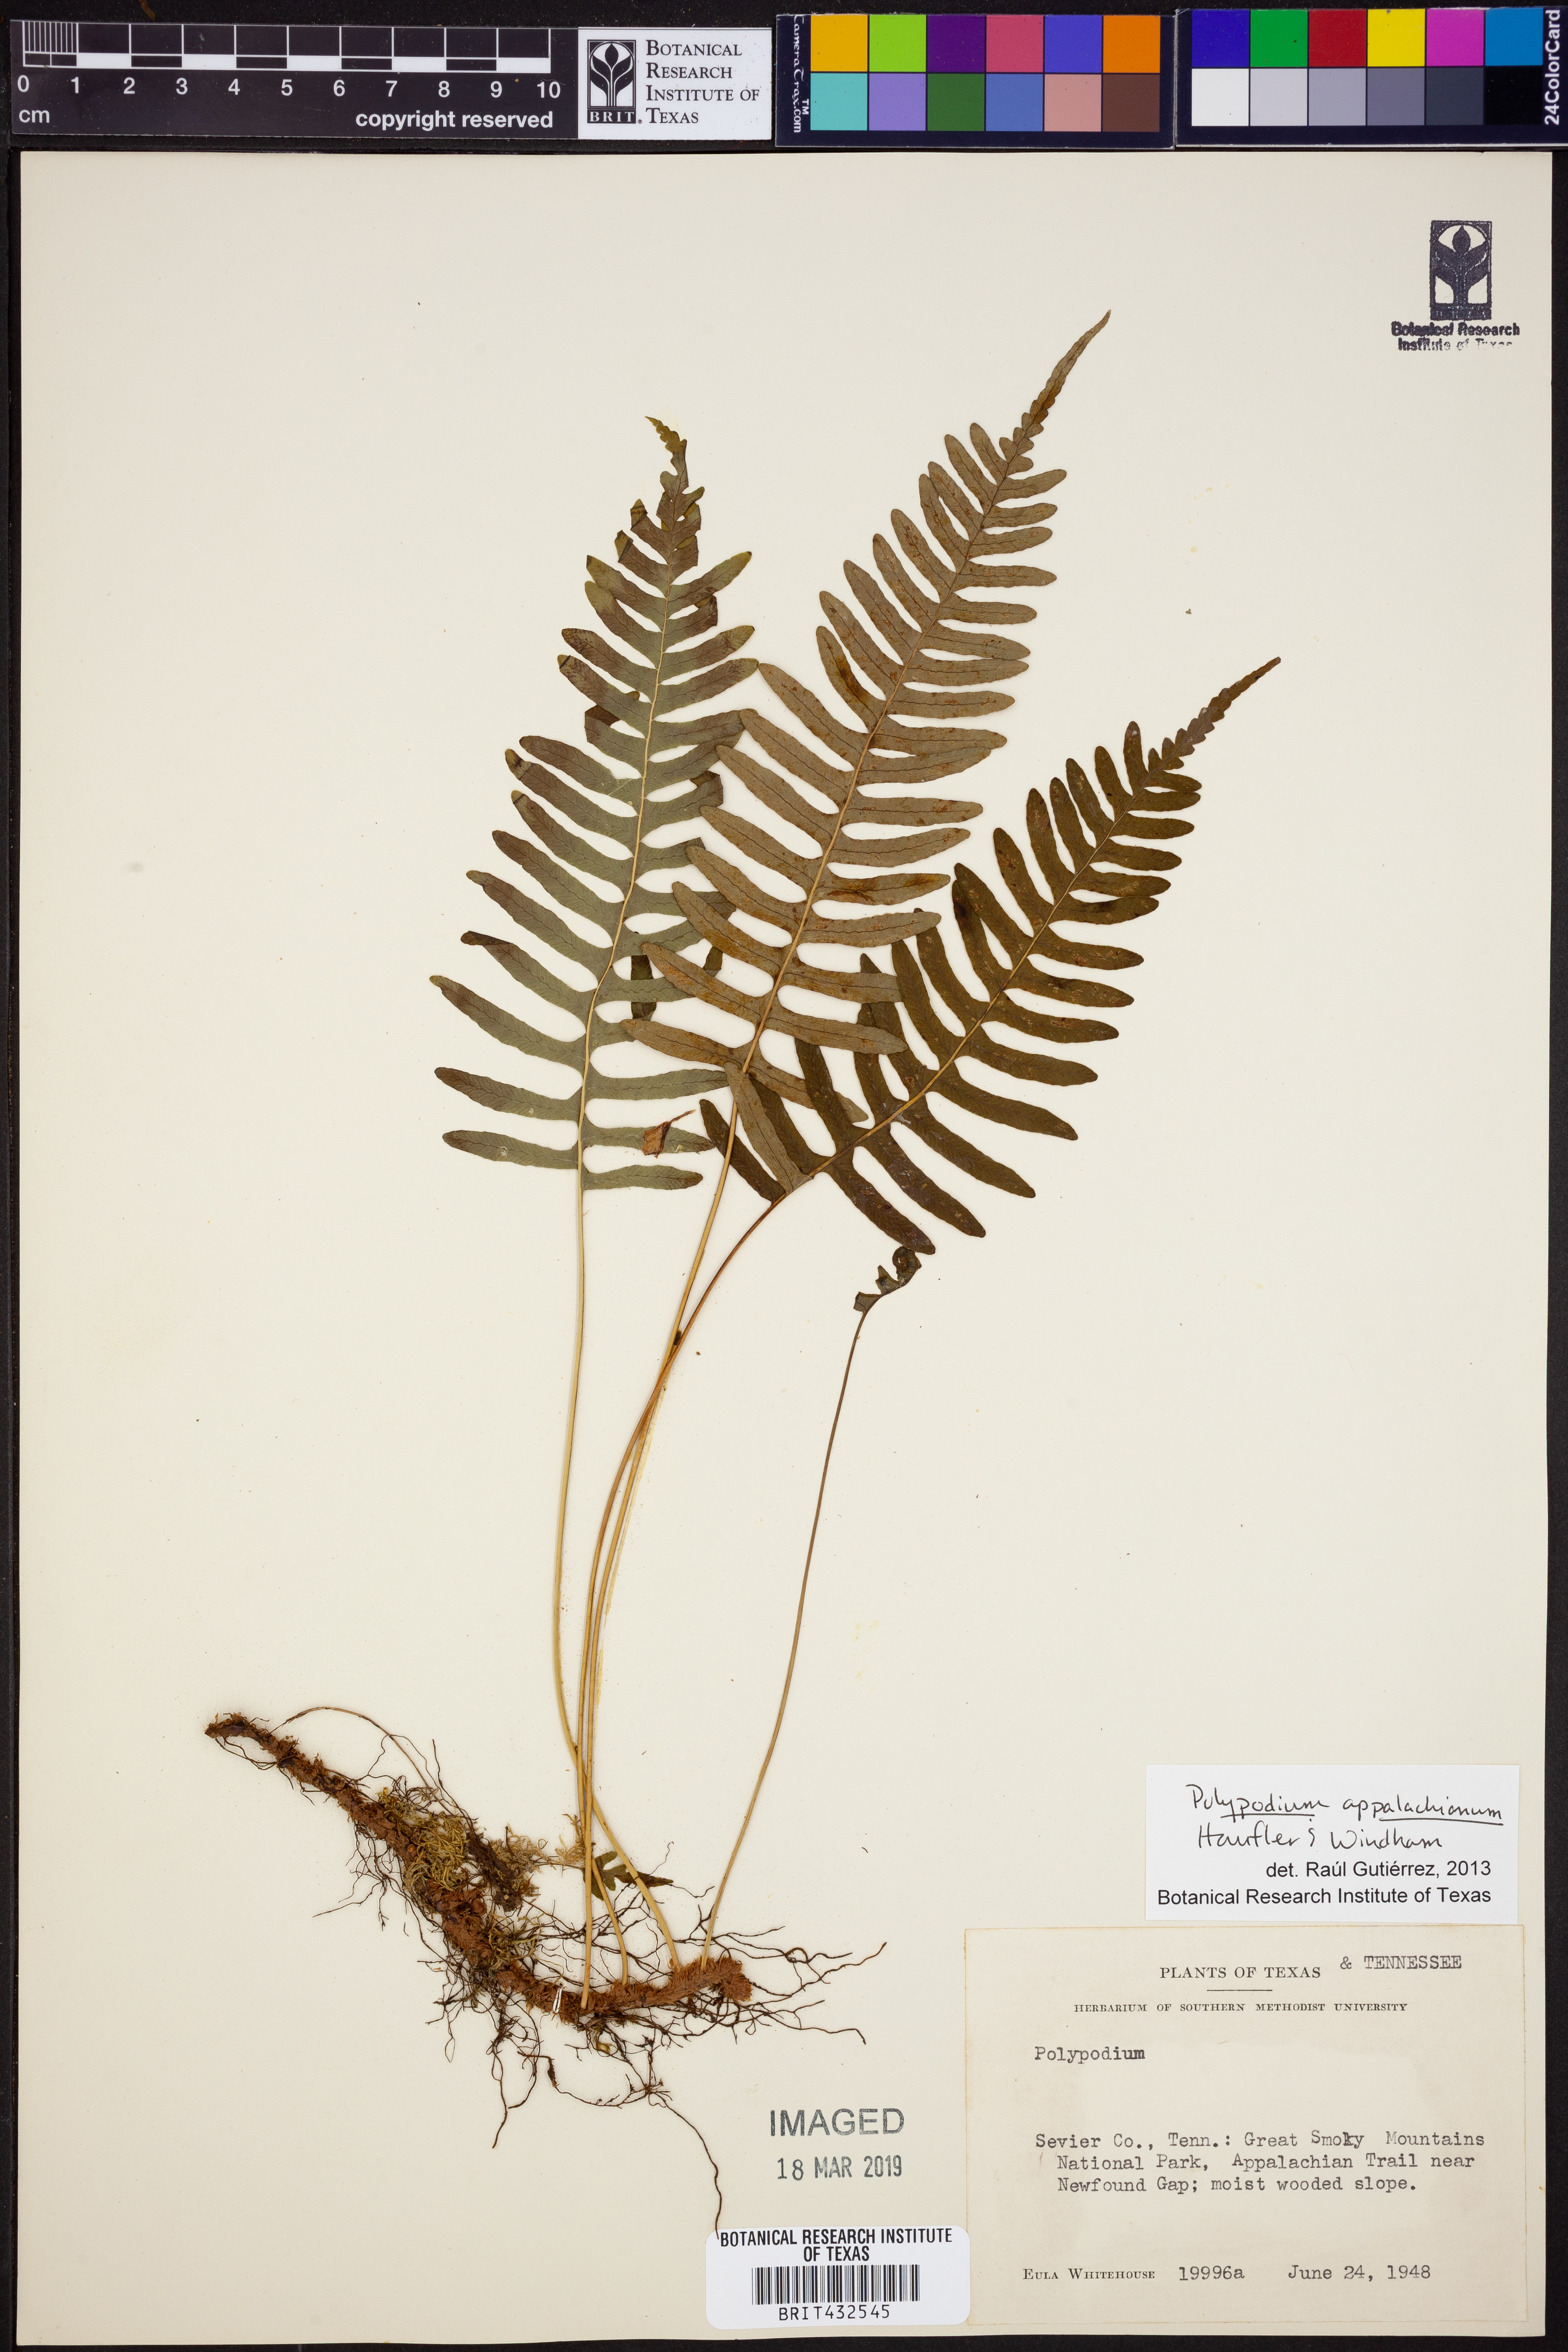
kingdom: Plantae
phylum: Tracheophyta
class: Polypodiopsida
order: Polypodiales
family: Polypodiaceae
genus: Polypodium
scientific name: Polypodium appalachianum
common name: Appalachian polypody
